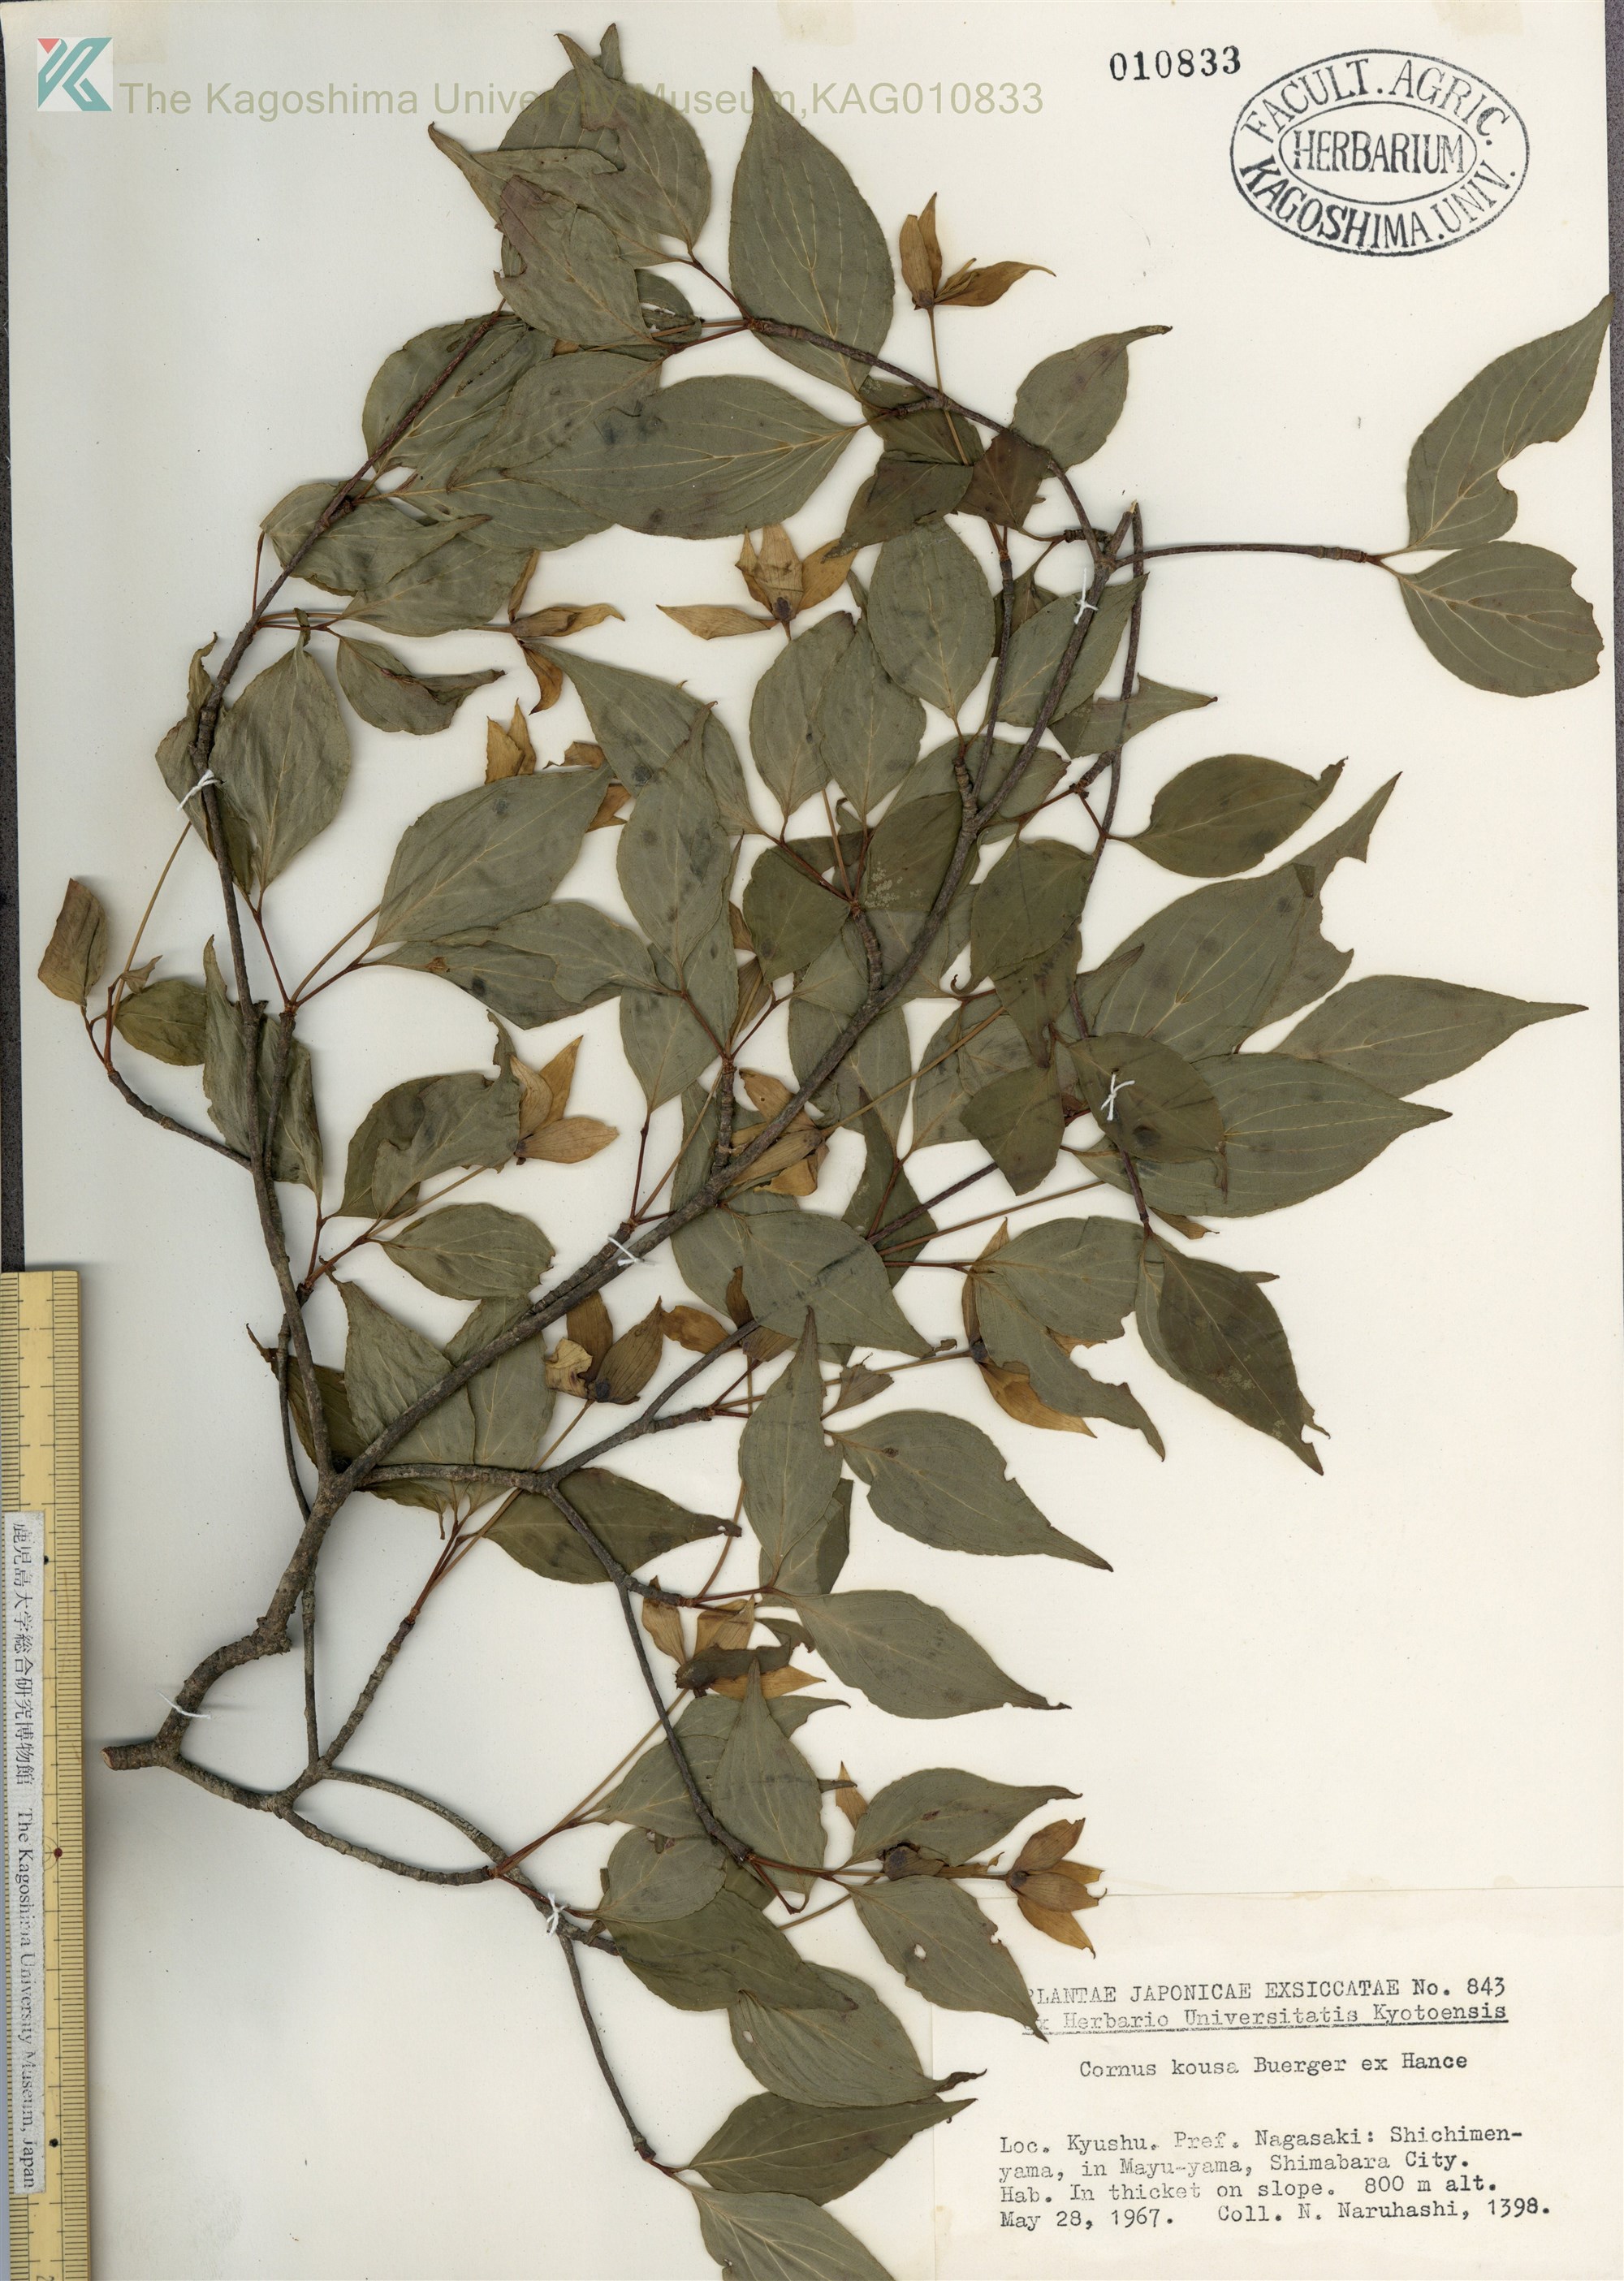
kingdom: Plantae
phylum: Tracheophyta
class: Magnoliopsida
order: Cornales
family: Cornaceae
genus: Cornus
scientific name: Cornus kousa
